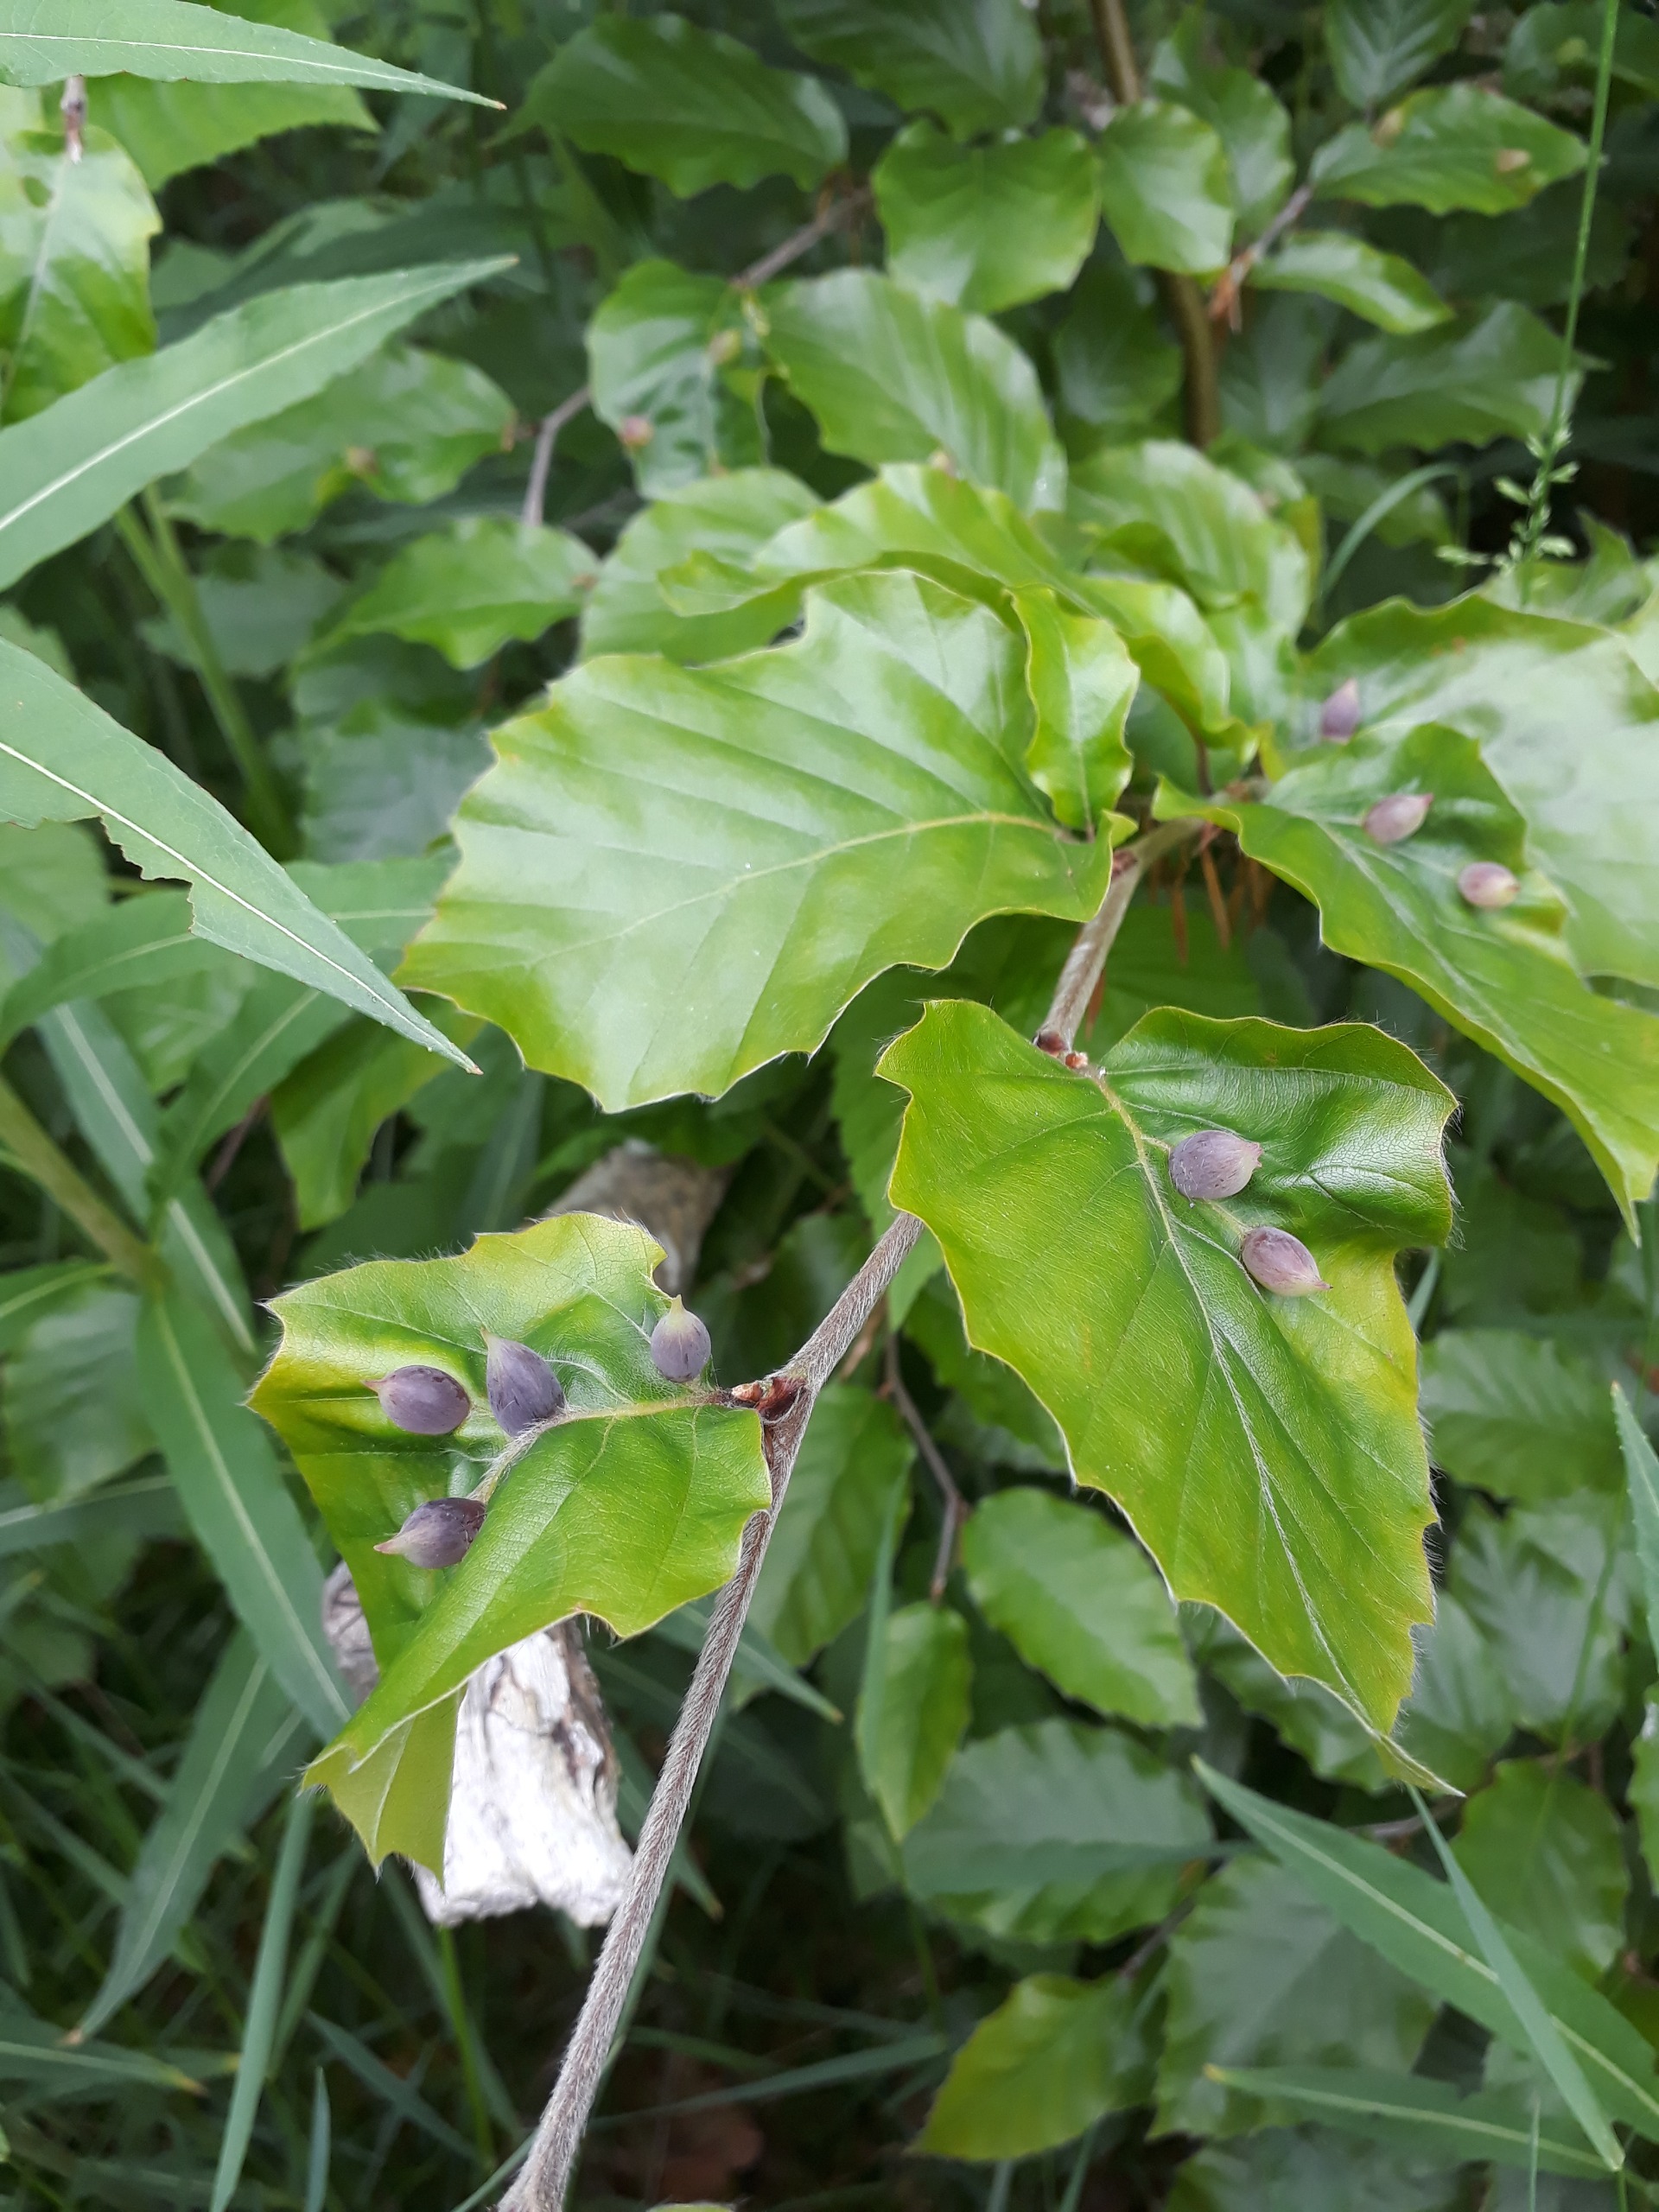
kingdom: Animalia
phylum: Arthropoda
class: Insecta
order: Diptera
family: Cecidomyiidae
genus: Mikiola
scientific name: Mikiola fagi
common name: Bøgegalmyg
